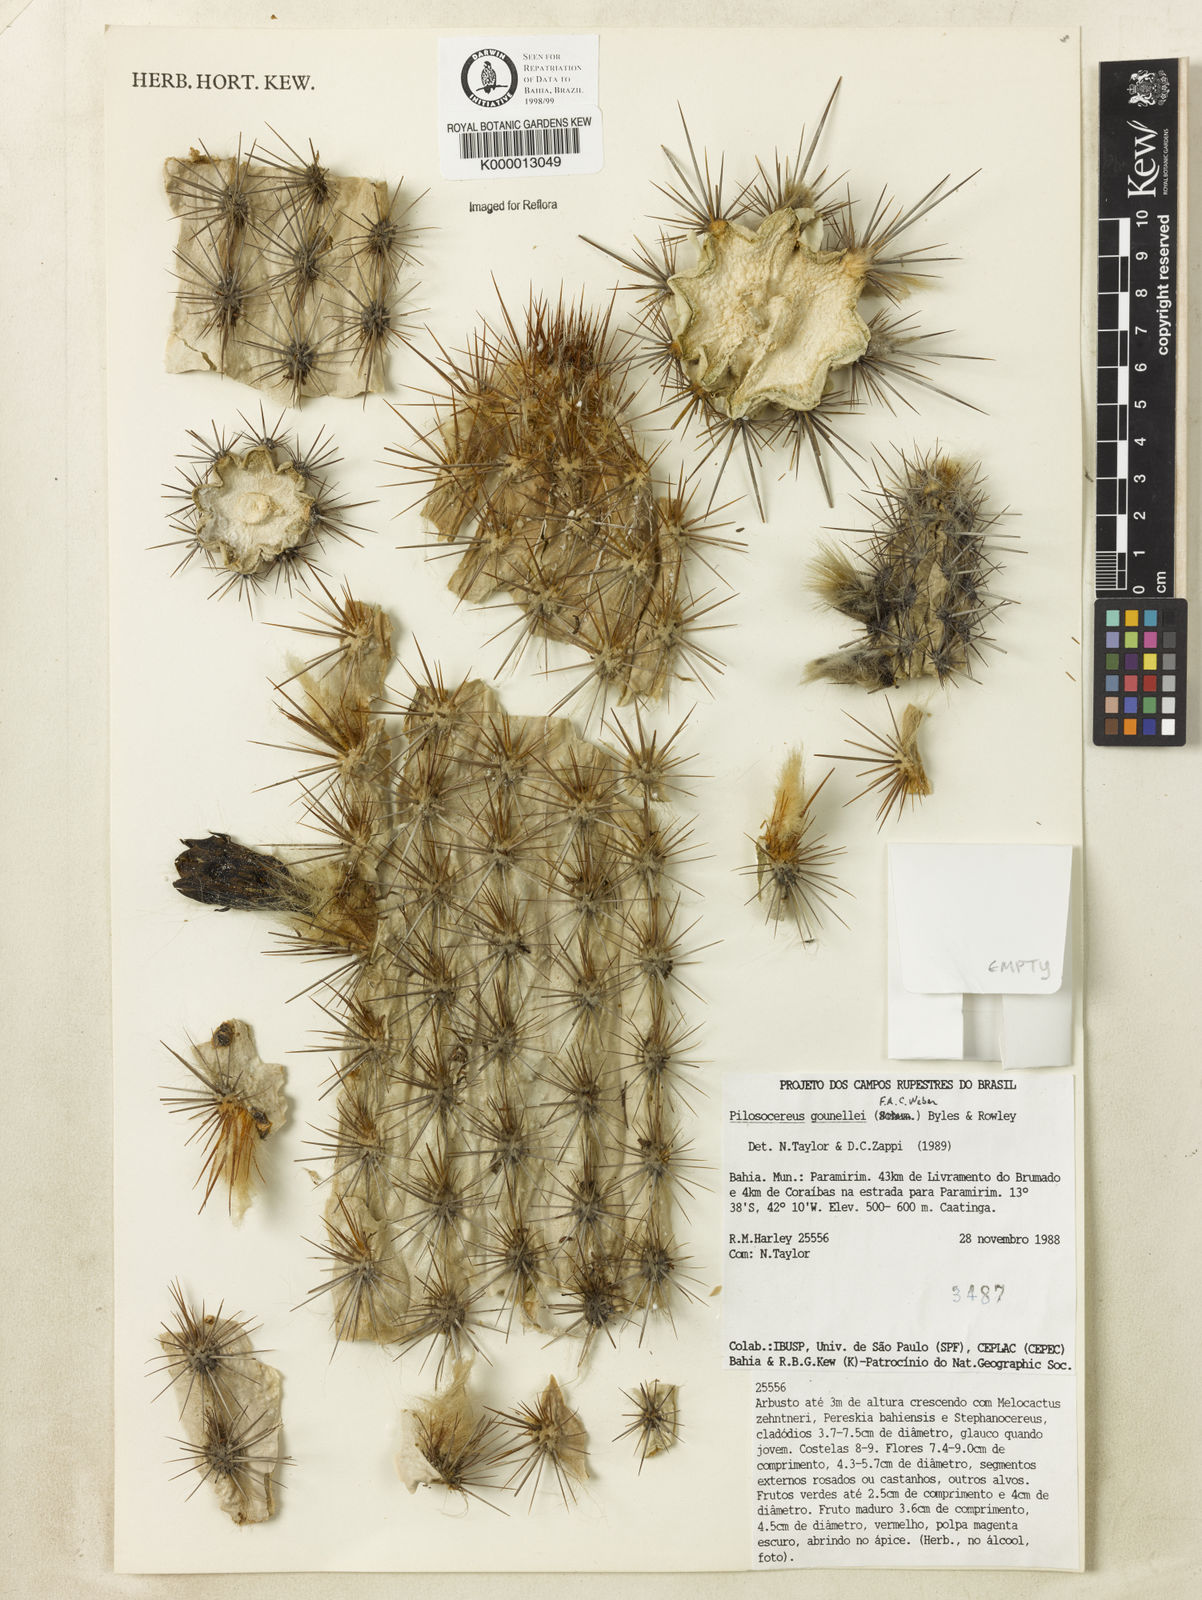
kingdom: Plantae
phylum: Tracheophyta
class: Magnoliopsida
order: Caryophyllales
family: Cactaceae
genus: Xiquexique
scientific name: Xiquexique gounellei
